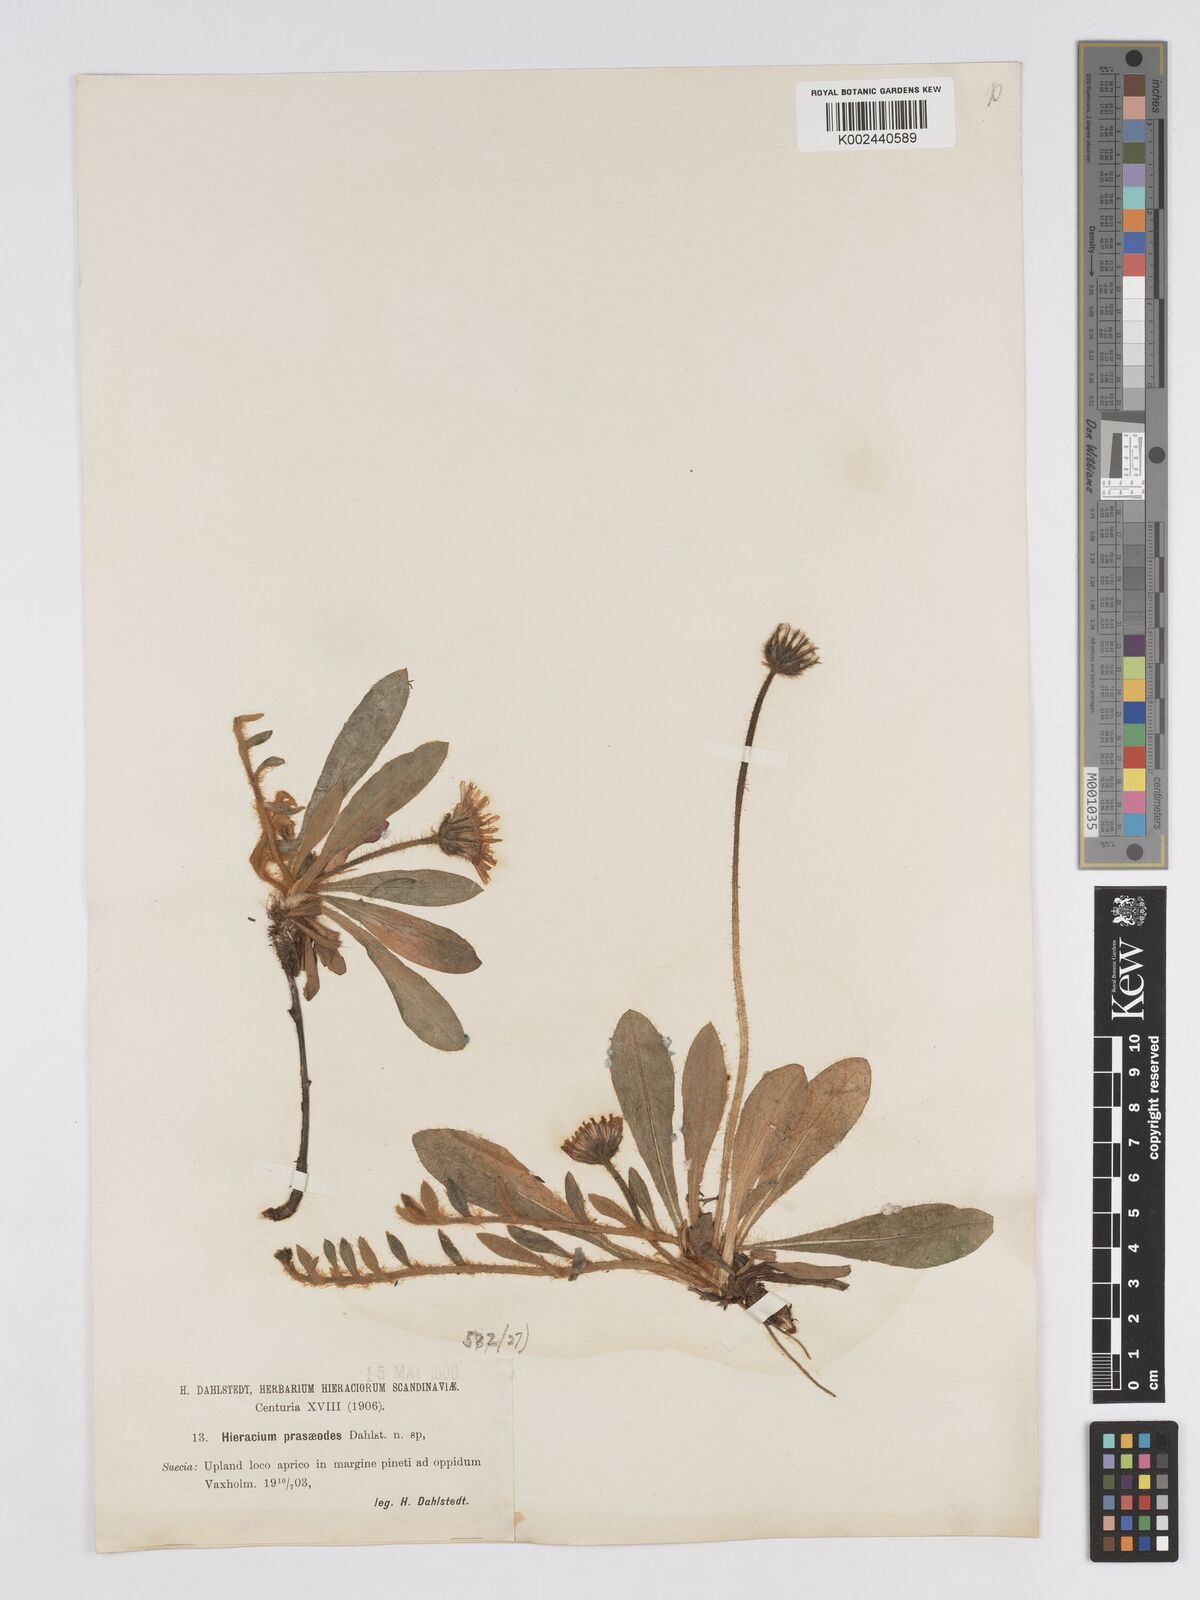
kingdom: Plantae
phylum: Tracheophyta
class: Magnoliopsida
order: Asterales
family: Asteraceae
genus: Pilosella
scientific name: Pilosella longisquama
